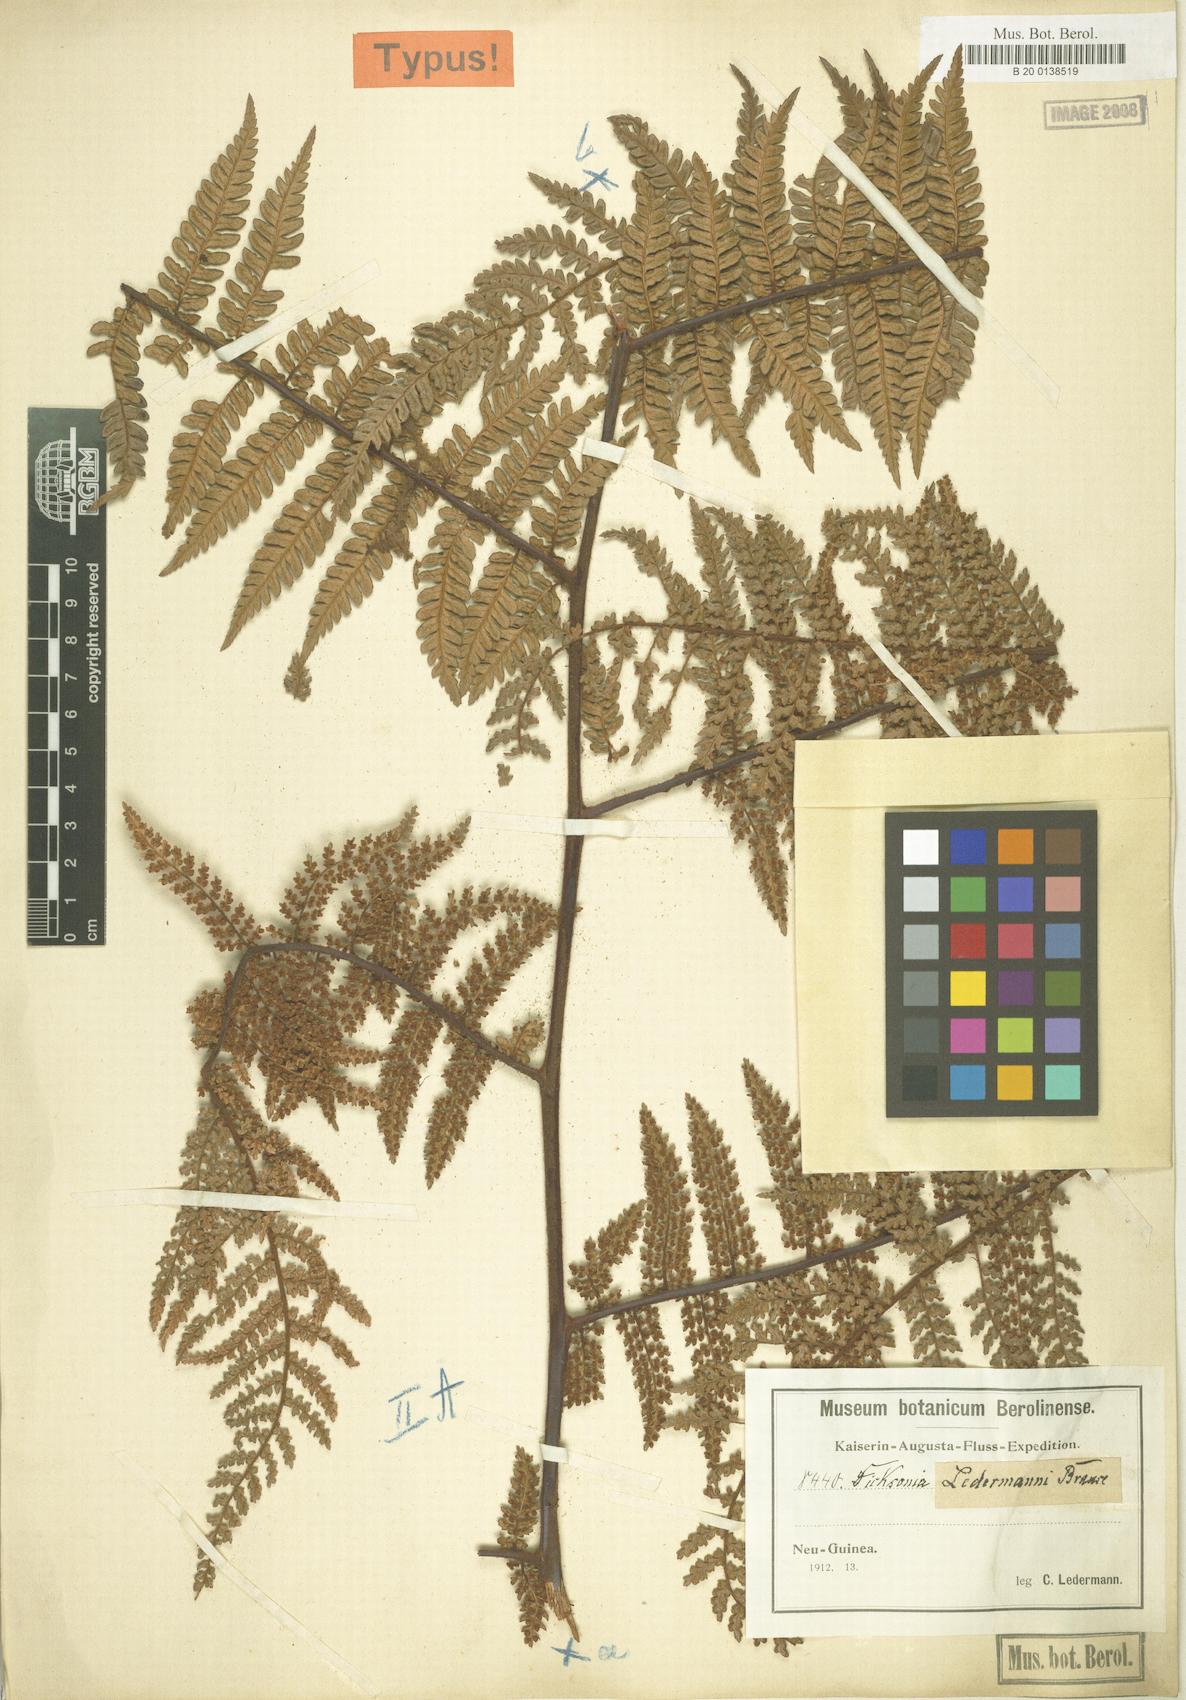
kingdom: Plantae
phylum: Tracheophyta
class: Polypodiopsida
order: Cyatheales
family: Dicksoniaceae
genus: Dicksonia
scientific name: Dicksonia grandis
